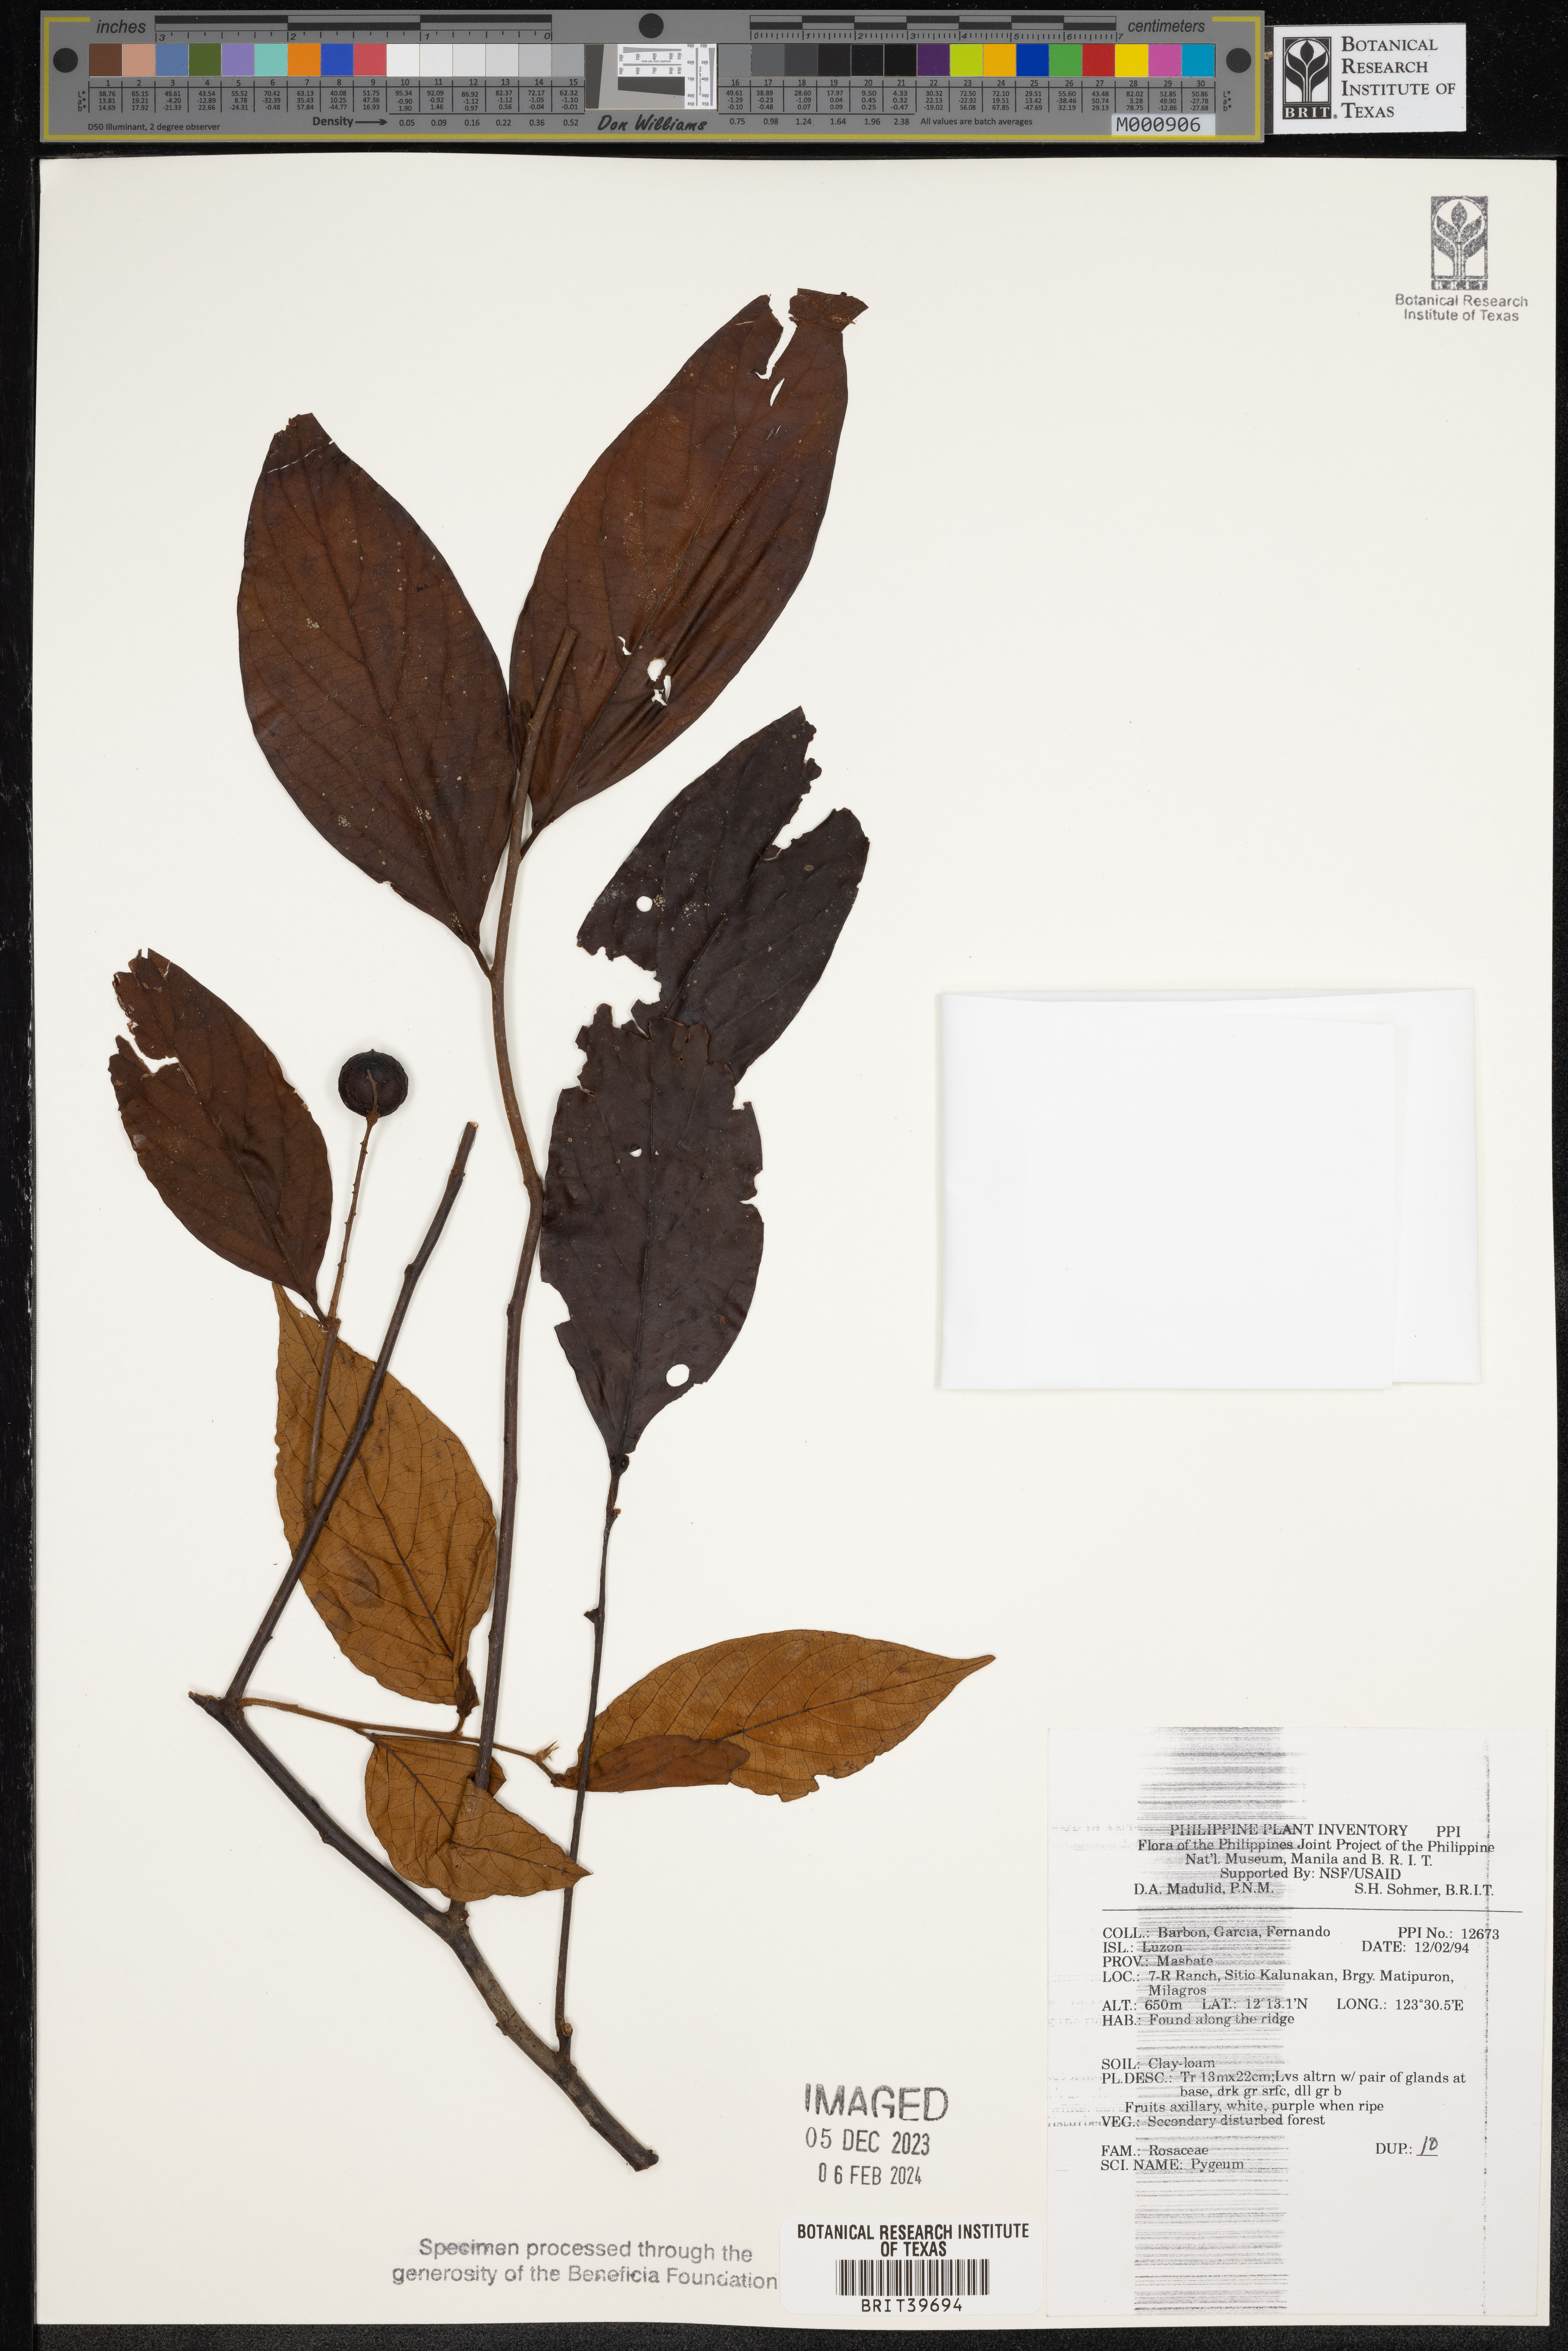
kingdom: Plantae
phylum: Tracheophyta
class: Magnoliopsida
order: Rosales
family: Rosaceae
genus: Prunus
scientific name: Prunus
